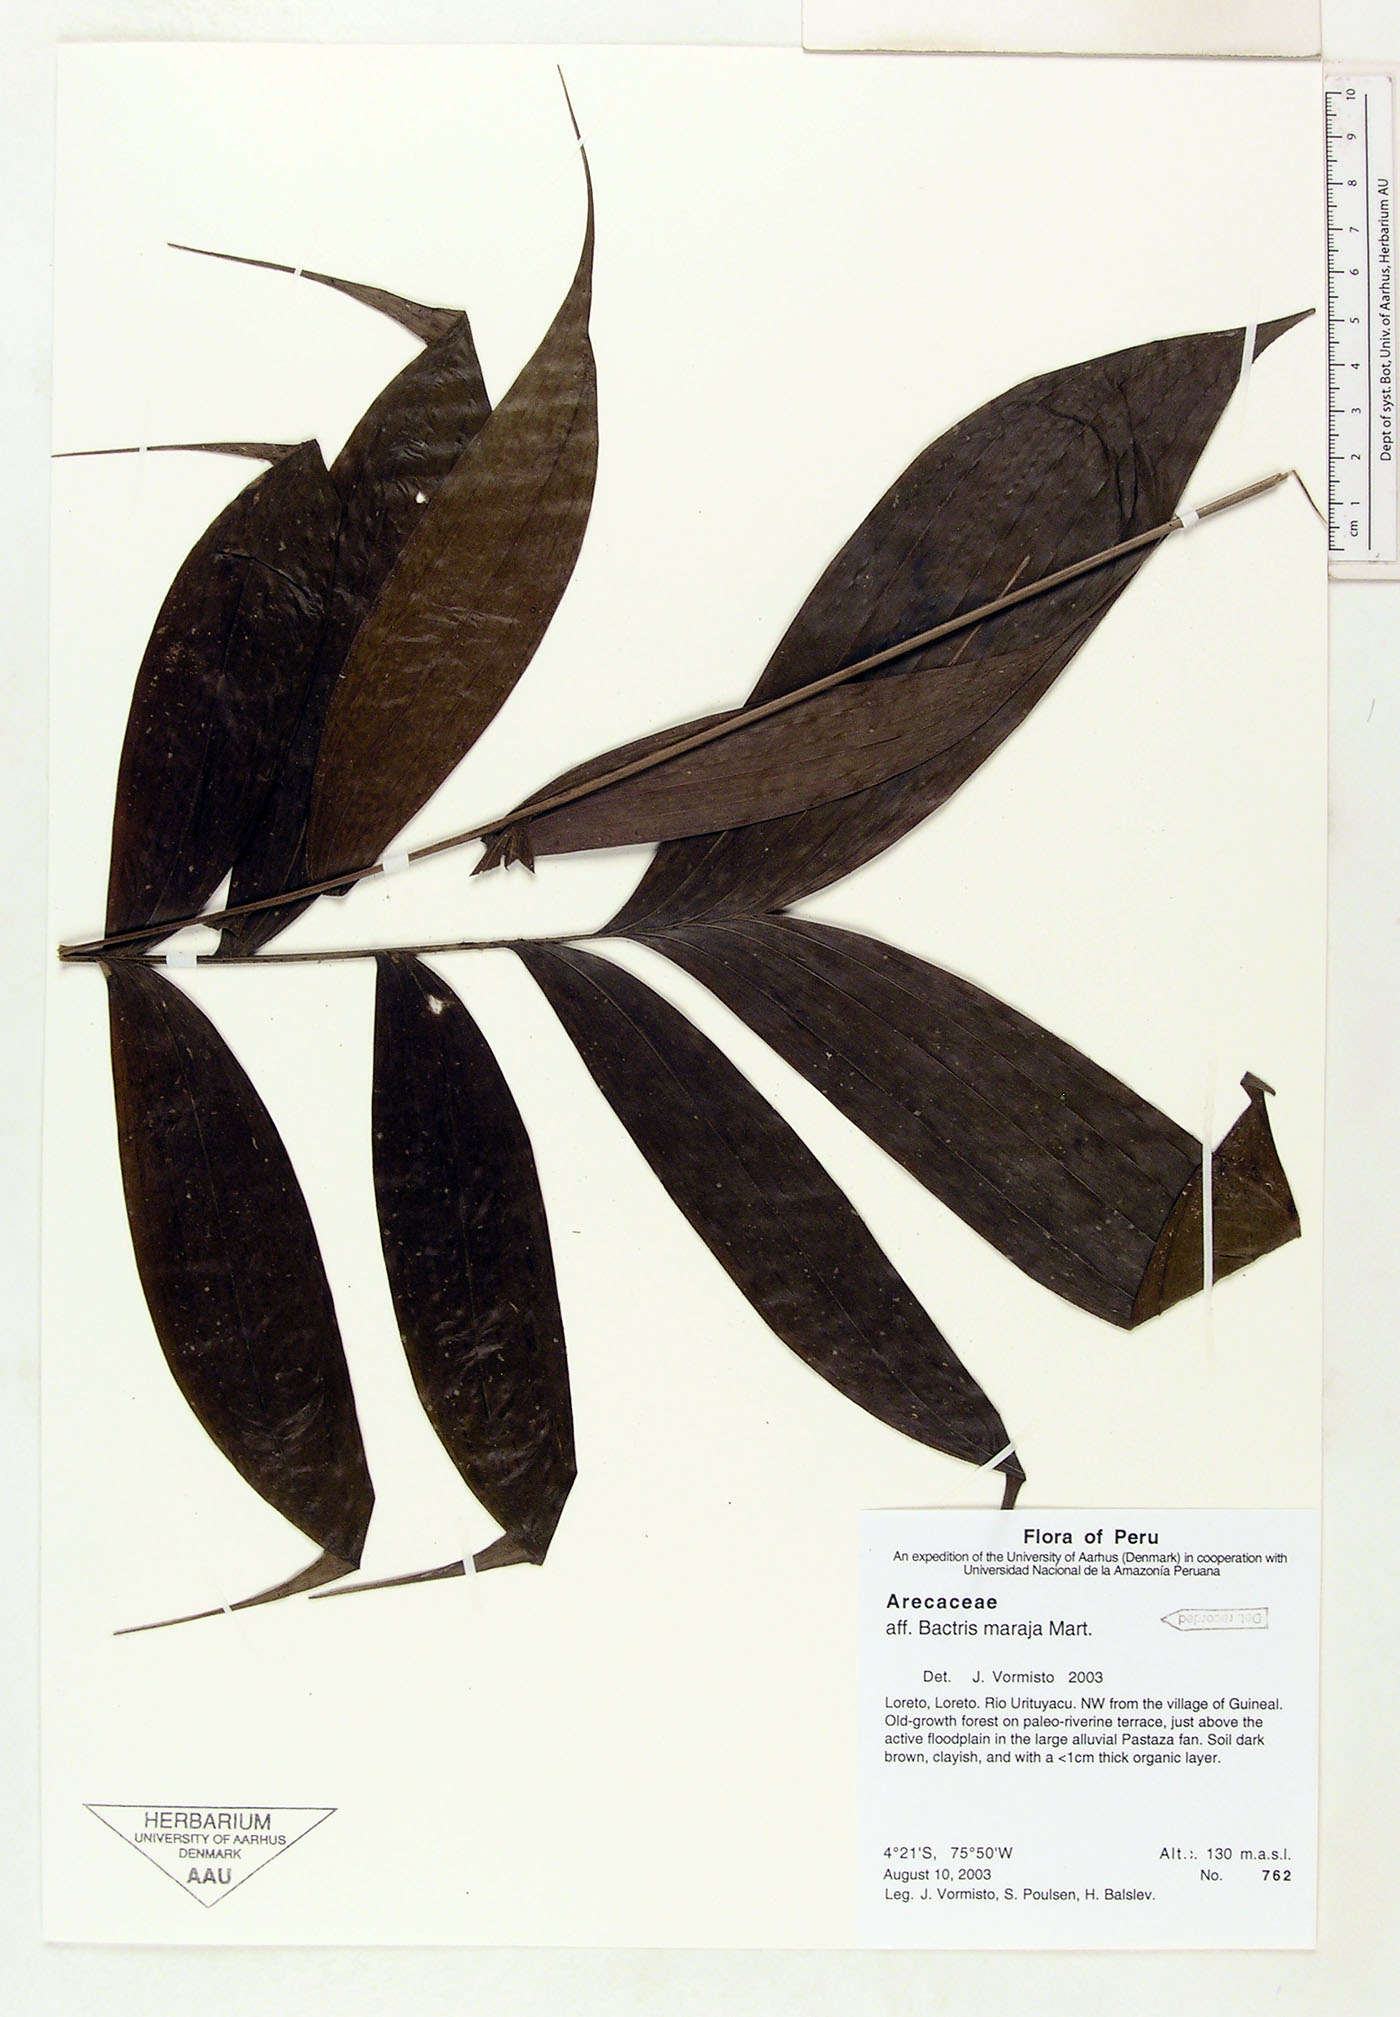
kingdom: Plantae
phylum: Tracheophyta
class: Liliopsida
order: Arecales
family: Arecaceae
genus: Bactris
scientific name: Bactris maraja
